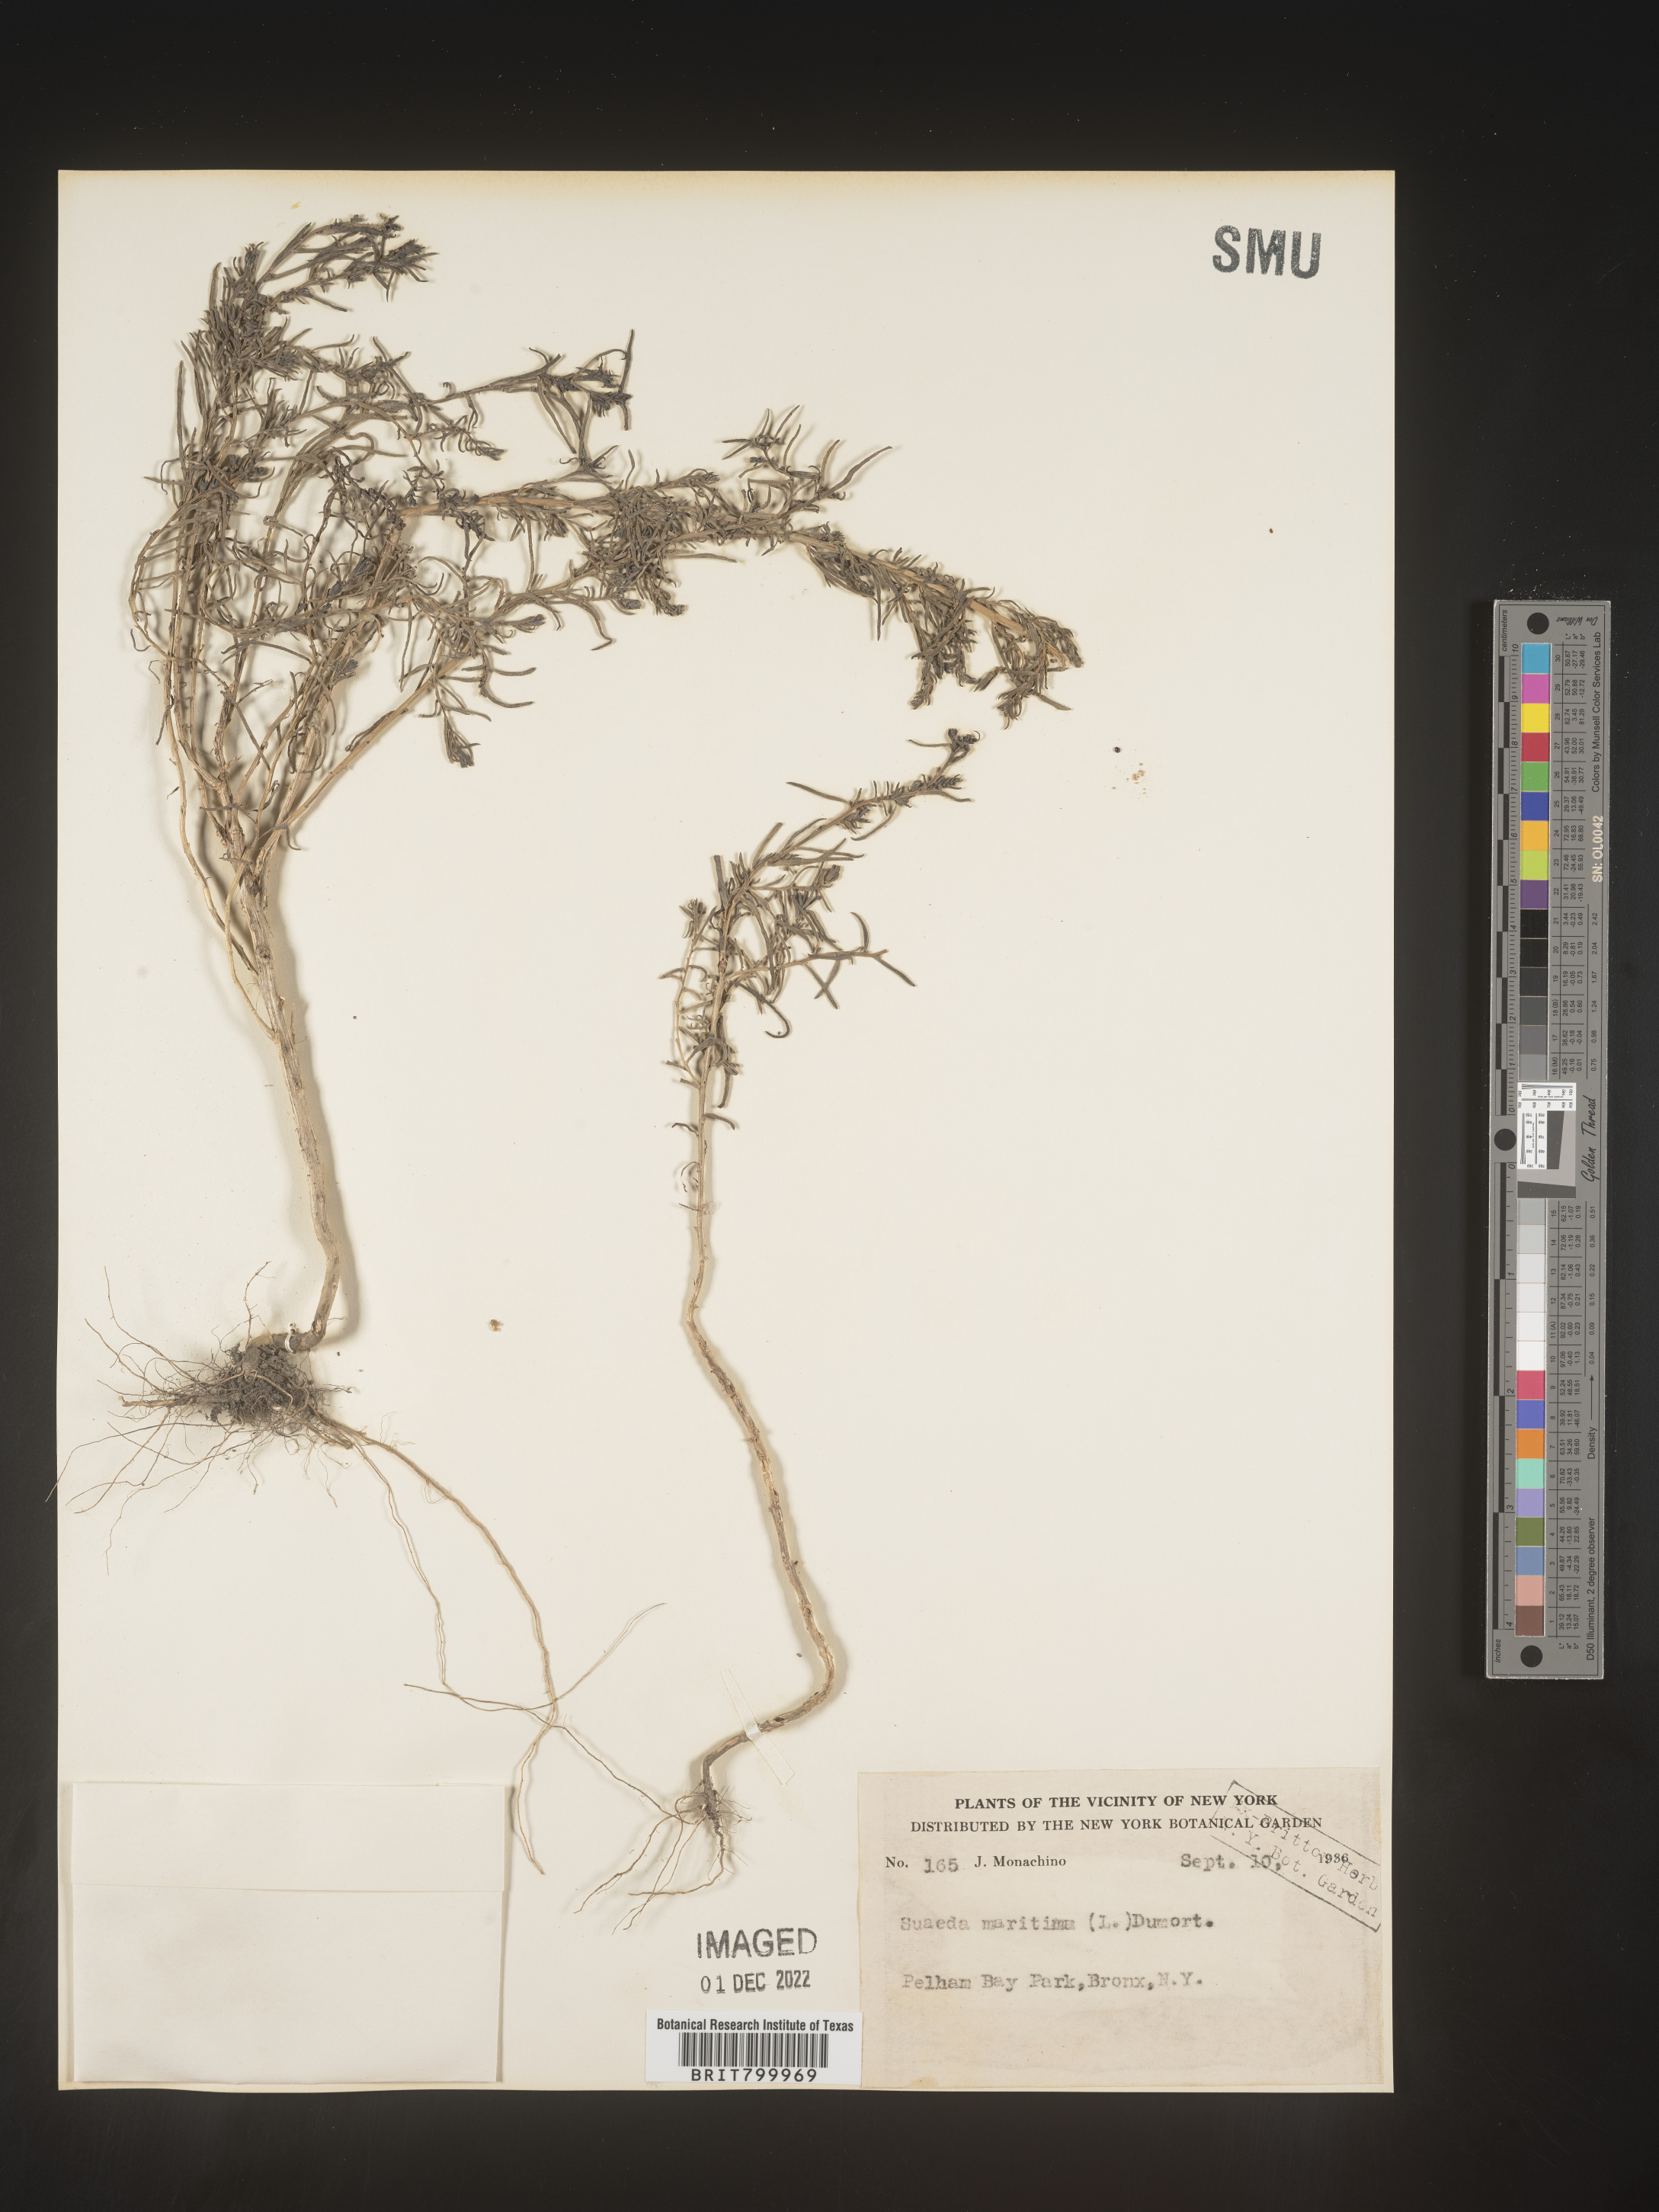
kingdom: Plantae
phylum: Tracheophyta
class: Magnoliopsida
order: Caryophyllales
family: Amaranthaceae
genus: Suaeda
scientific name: Suaeda maritima
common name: Annual sea-blite
